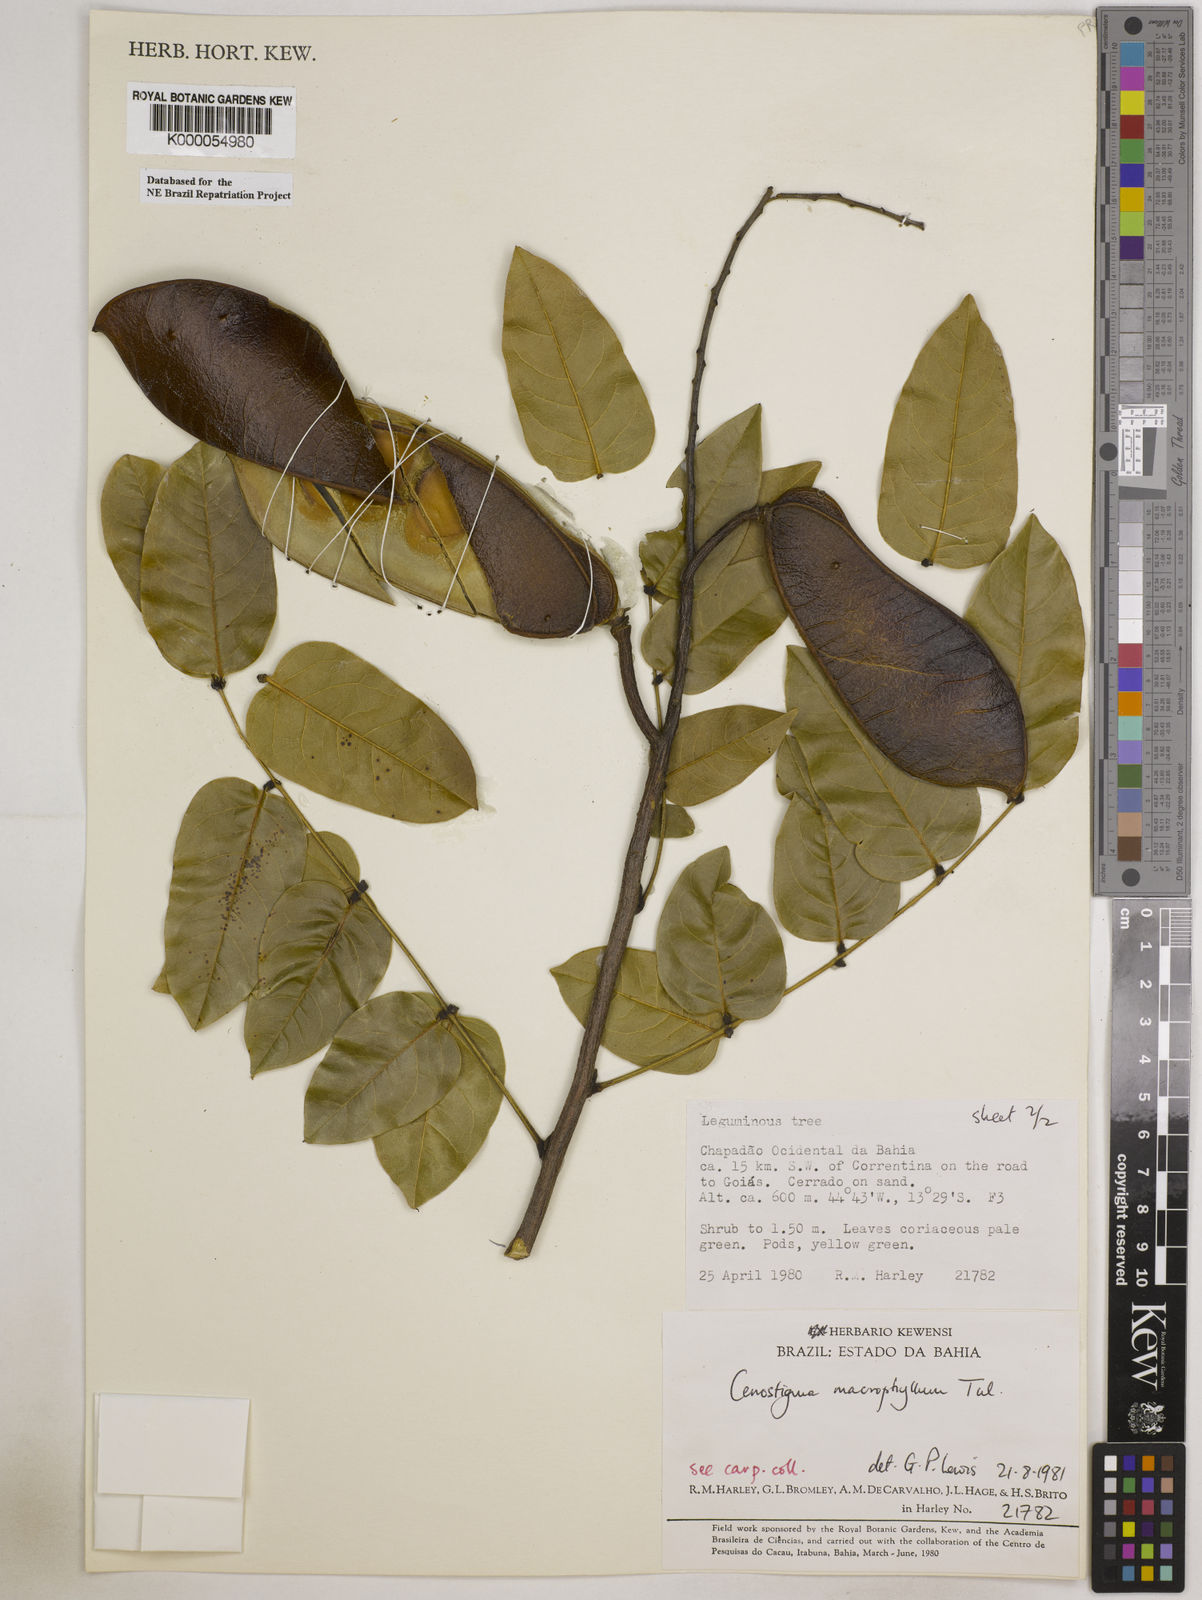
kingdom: Plantae
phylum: Tracheophyta
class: Magnoliopsida
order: Fabales
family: Fabaceae
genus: Cenostigma
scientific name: Cenostigma macrophyllum
